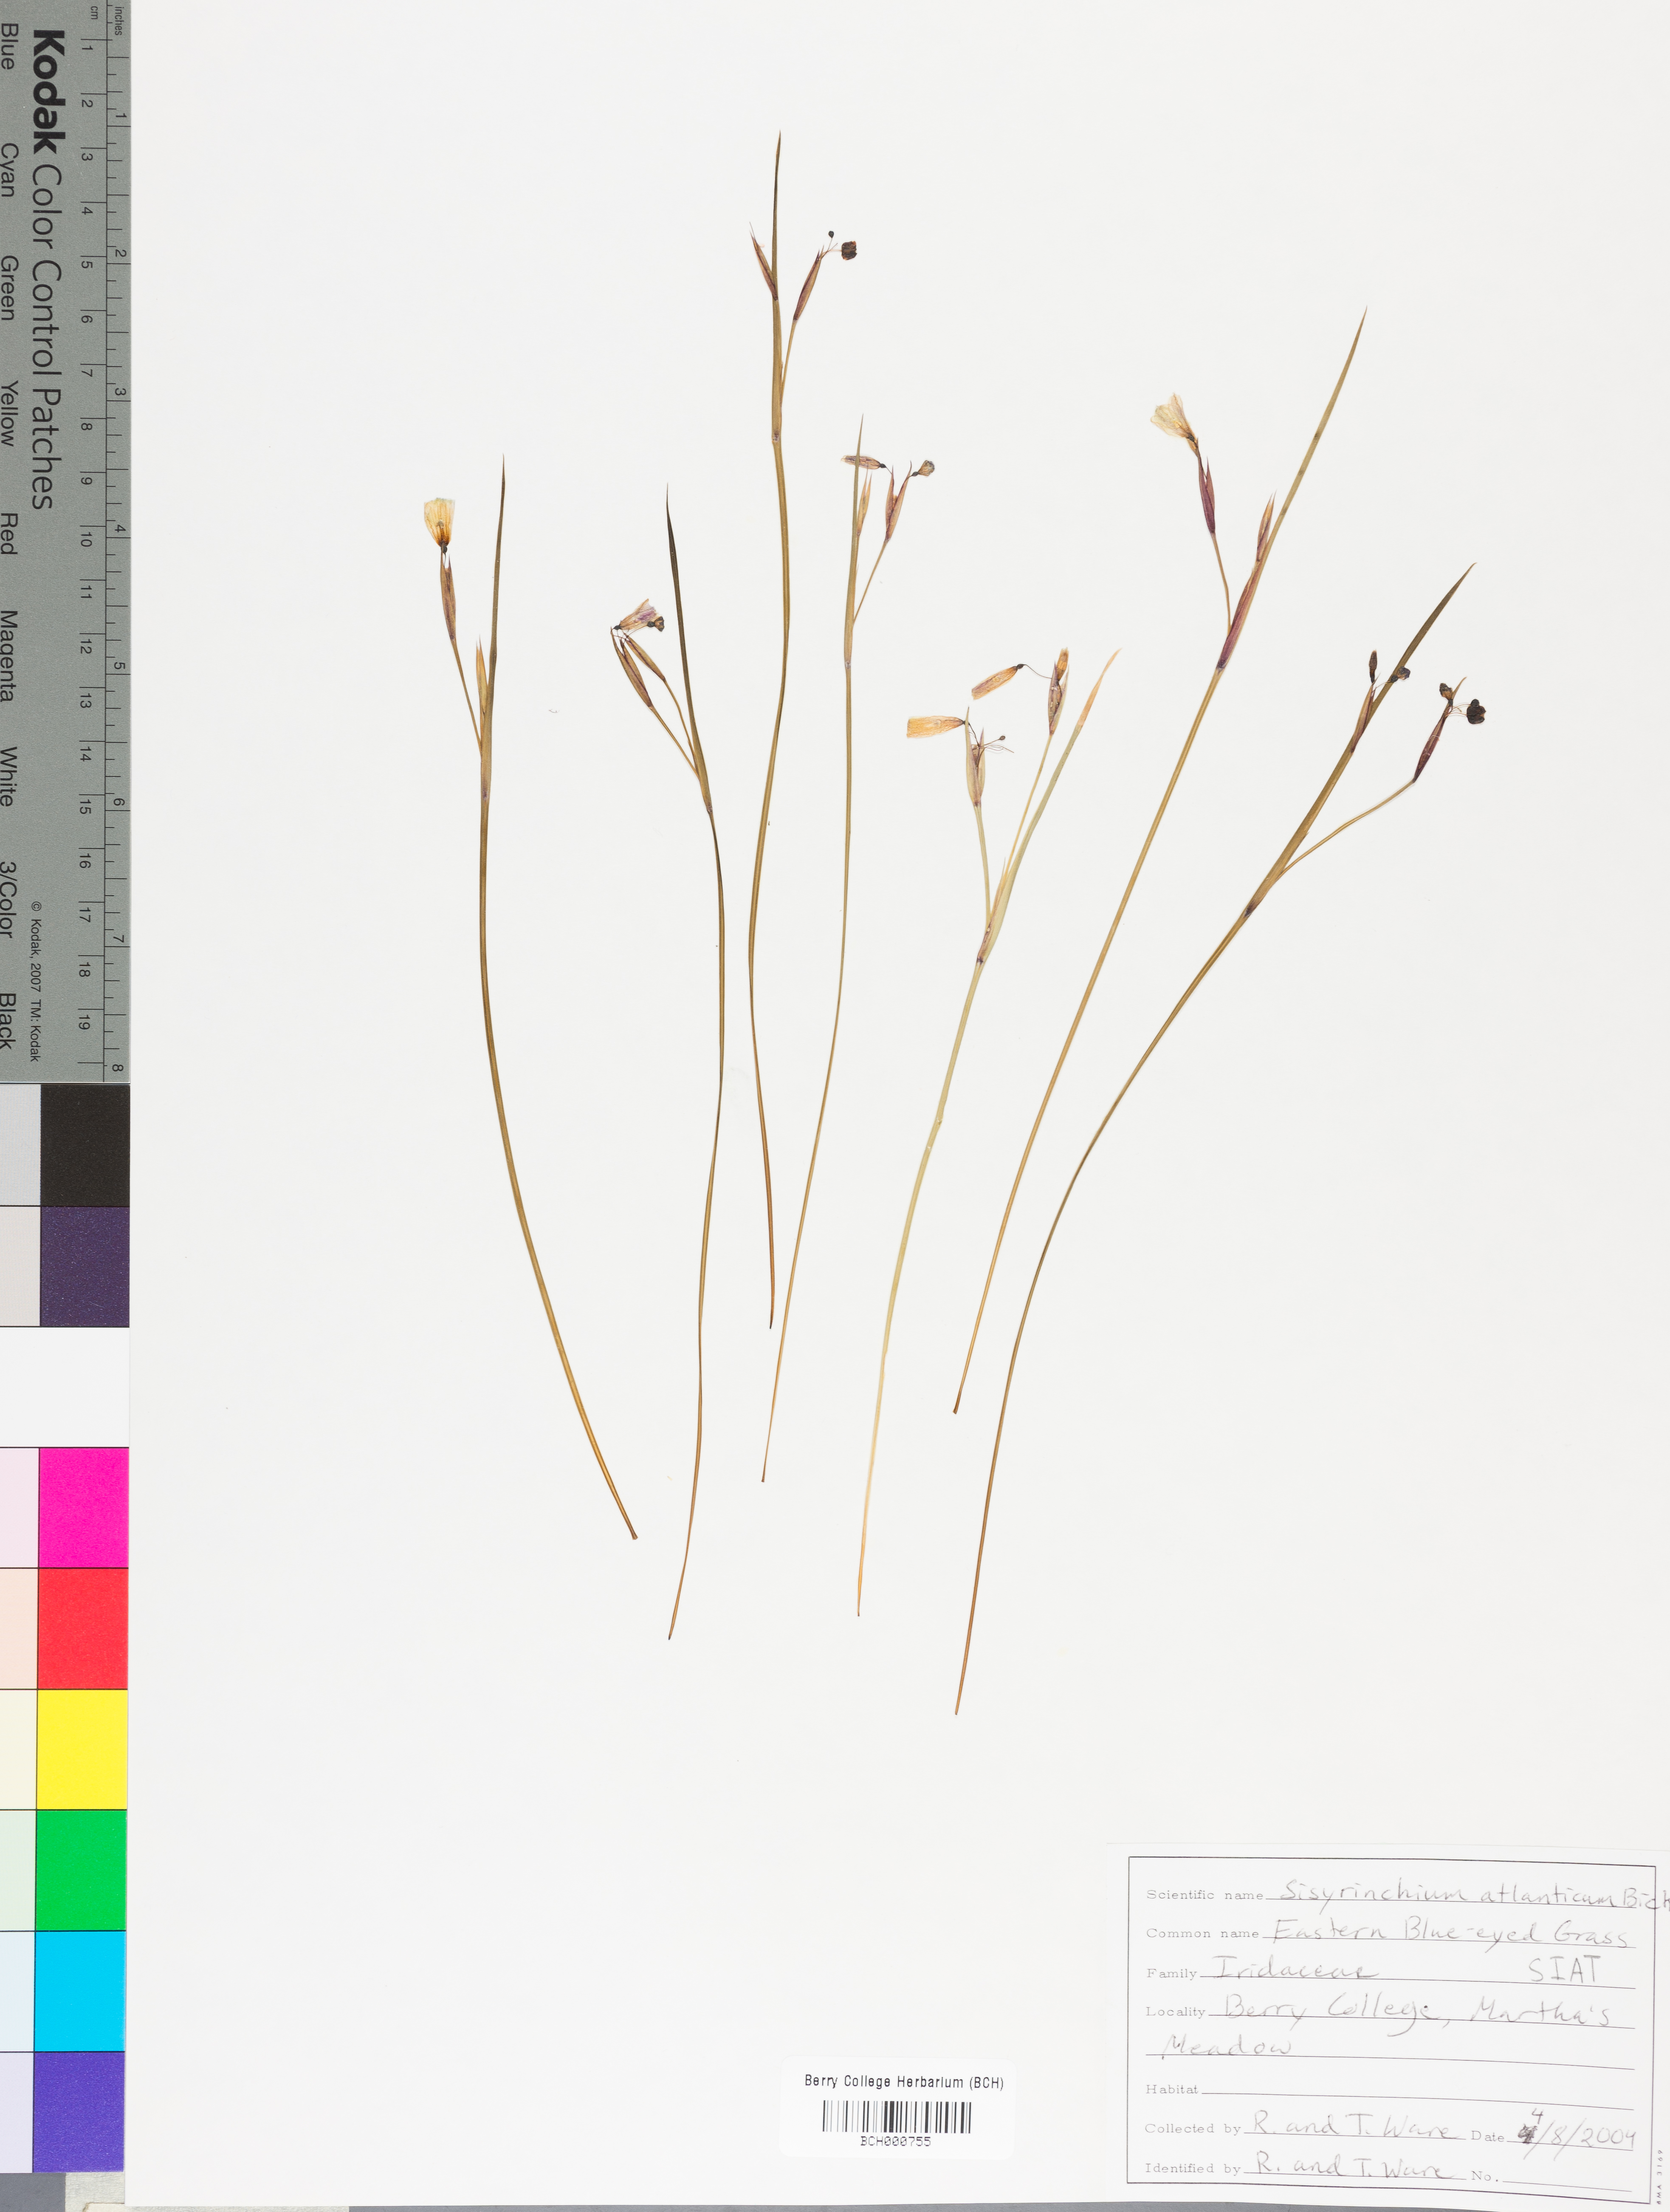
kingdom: Plantae
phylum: Tracheophyta
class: Liliopsida
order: Asparagales
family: Iridaceae
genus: Sisyrinchium
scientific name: Sisyrinchium atlanticum
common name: Eastern blue-eyed-grass
